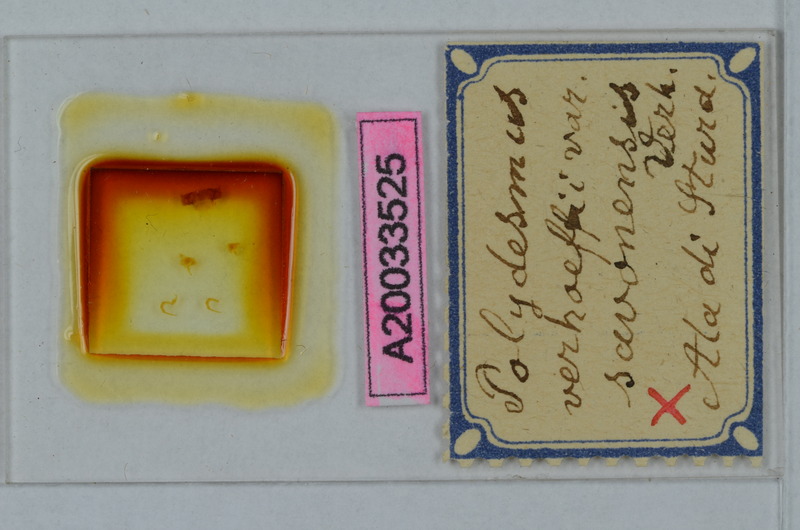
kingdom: Animalia
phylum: Arthropoda
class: Diplopoda
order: Polydesmida
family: Polydesmidae
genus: Polydesmus
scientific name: Polydesmus angustus
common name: Flat millipede
